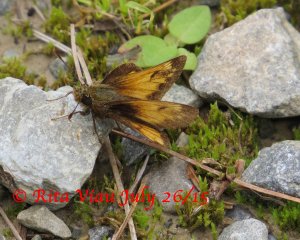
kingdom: Animalia
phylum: Arthropoda
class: Insecta
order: Lepidoptera
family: Hesperiidae
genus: Lon
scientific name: Lon hobomok
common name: Hobomok Skipper
